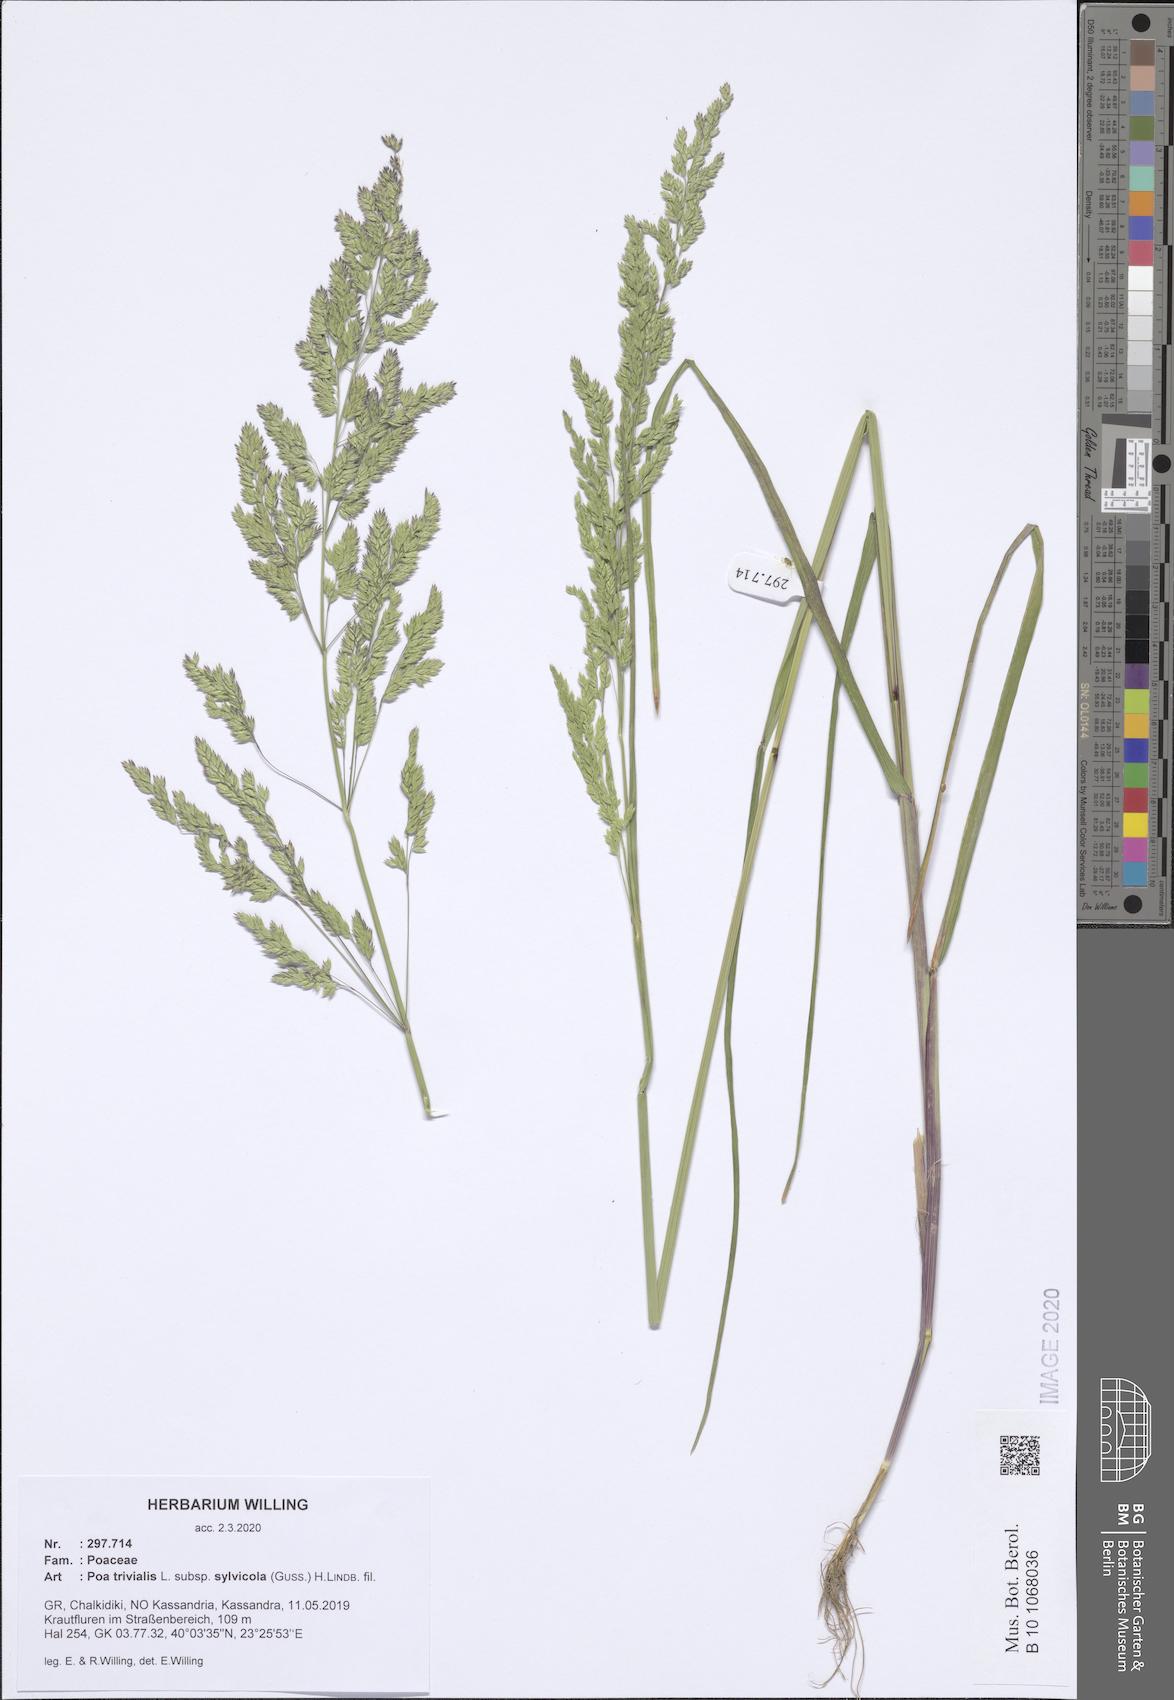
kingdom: Plantae
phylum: Tracheophyta
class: Liliopsida
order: Poales
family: Poaceae
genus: Poa
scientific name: Poa trivialis
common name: Rough bluegrass
